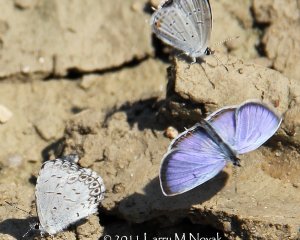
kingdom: Animalia
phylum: Arthropoda
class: Insecta
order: Lepidoptera
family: Lycaenidae
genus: Elkalyce
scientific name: Elkalyce comyntas
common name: Eastern Tailed-Blue
